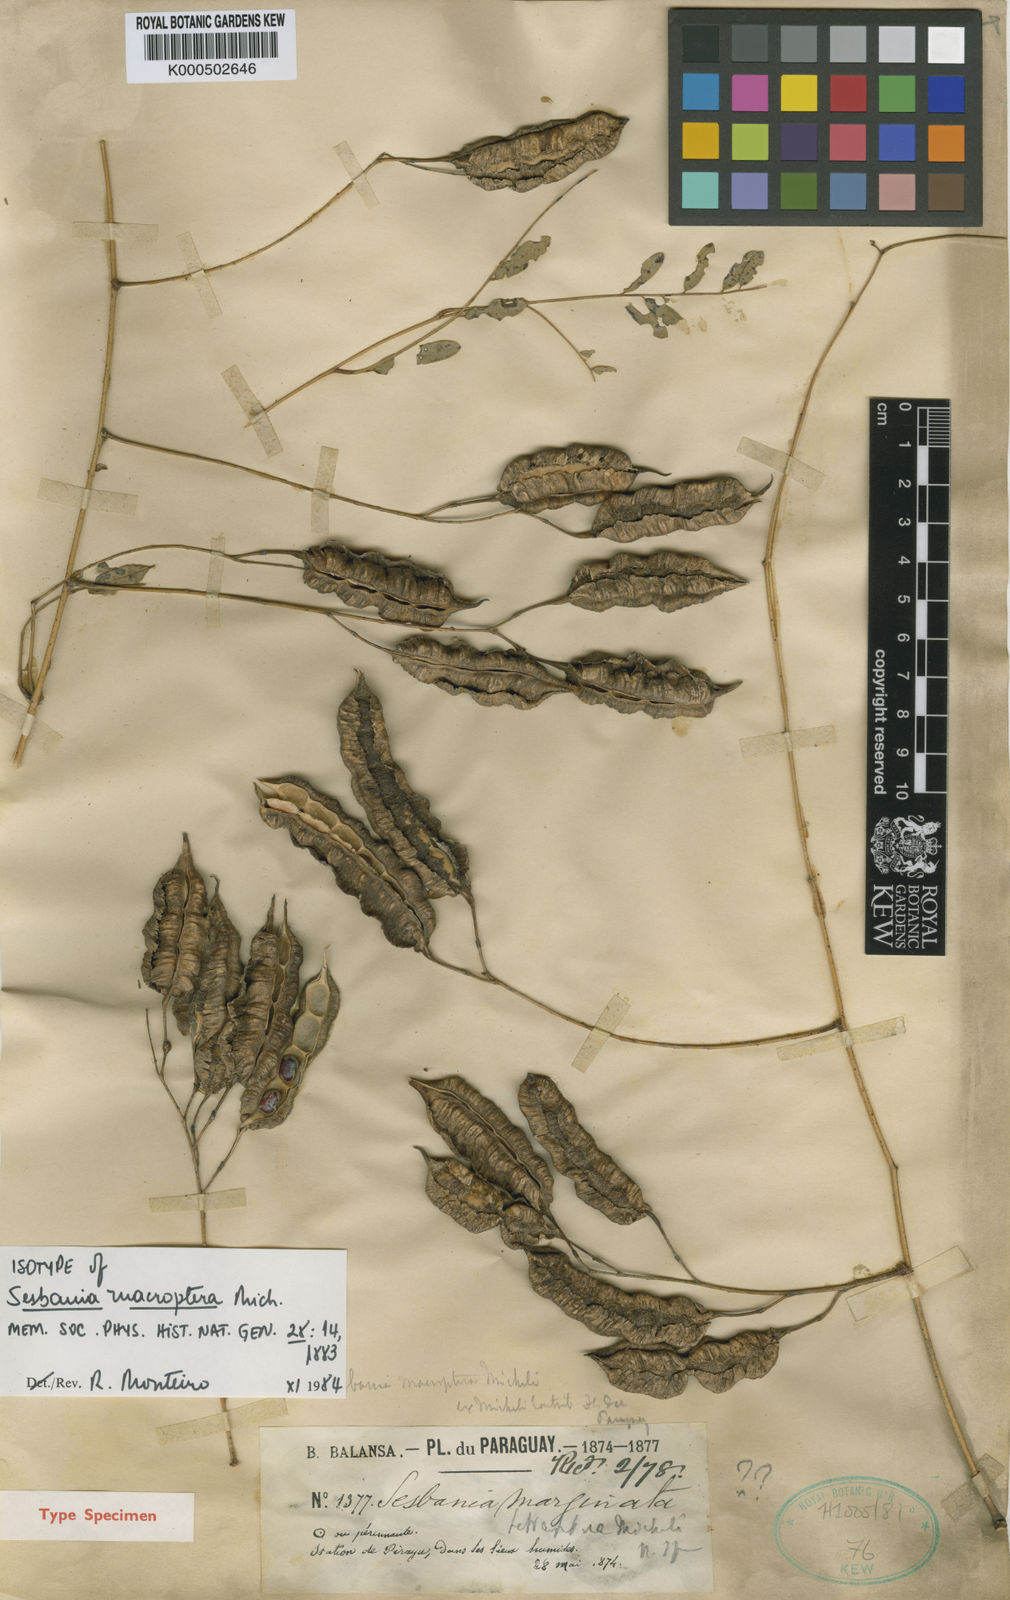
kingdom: Plantae
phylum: Tracheophyta
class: Magnoliopsida
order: Fabales
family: Fabaceae
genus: Sesbania
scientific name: Sesbania macroptera
